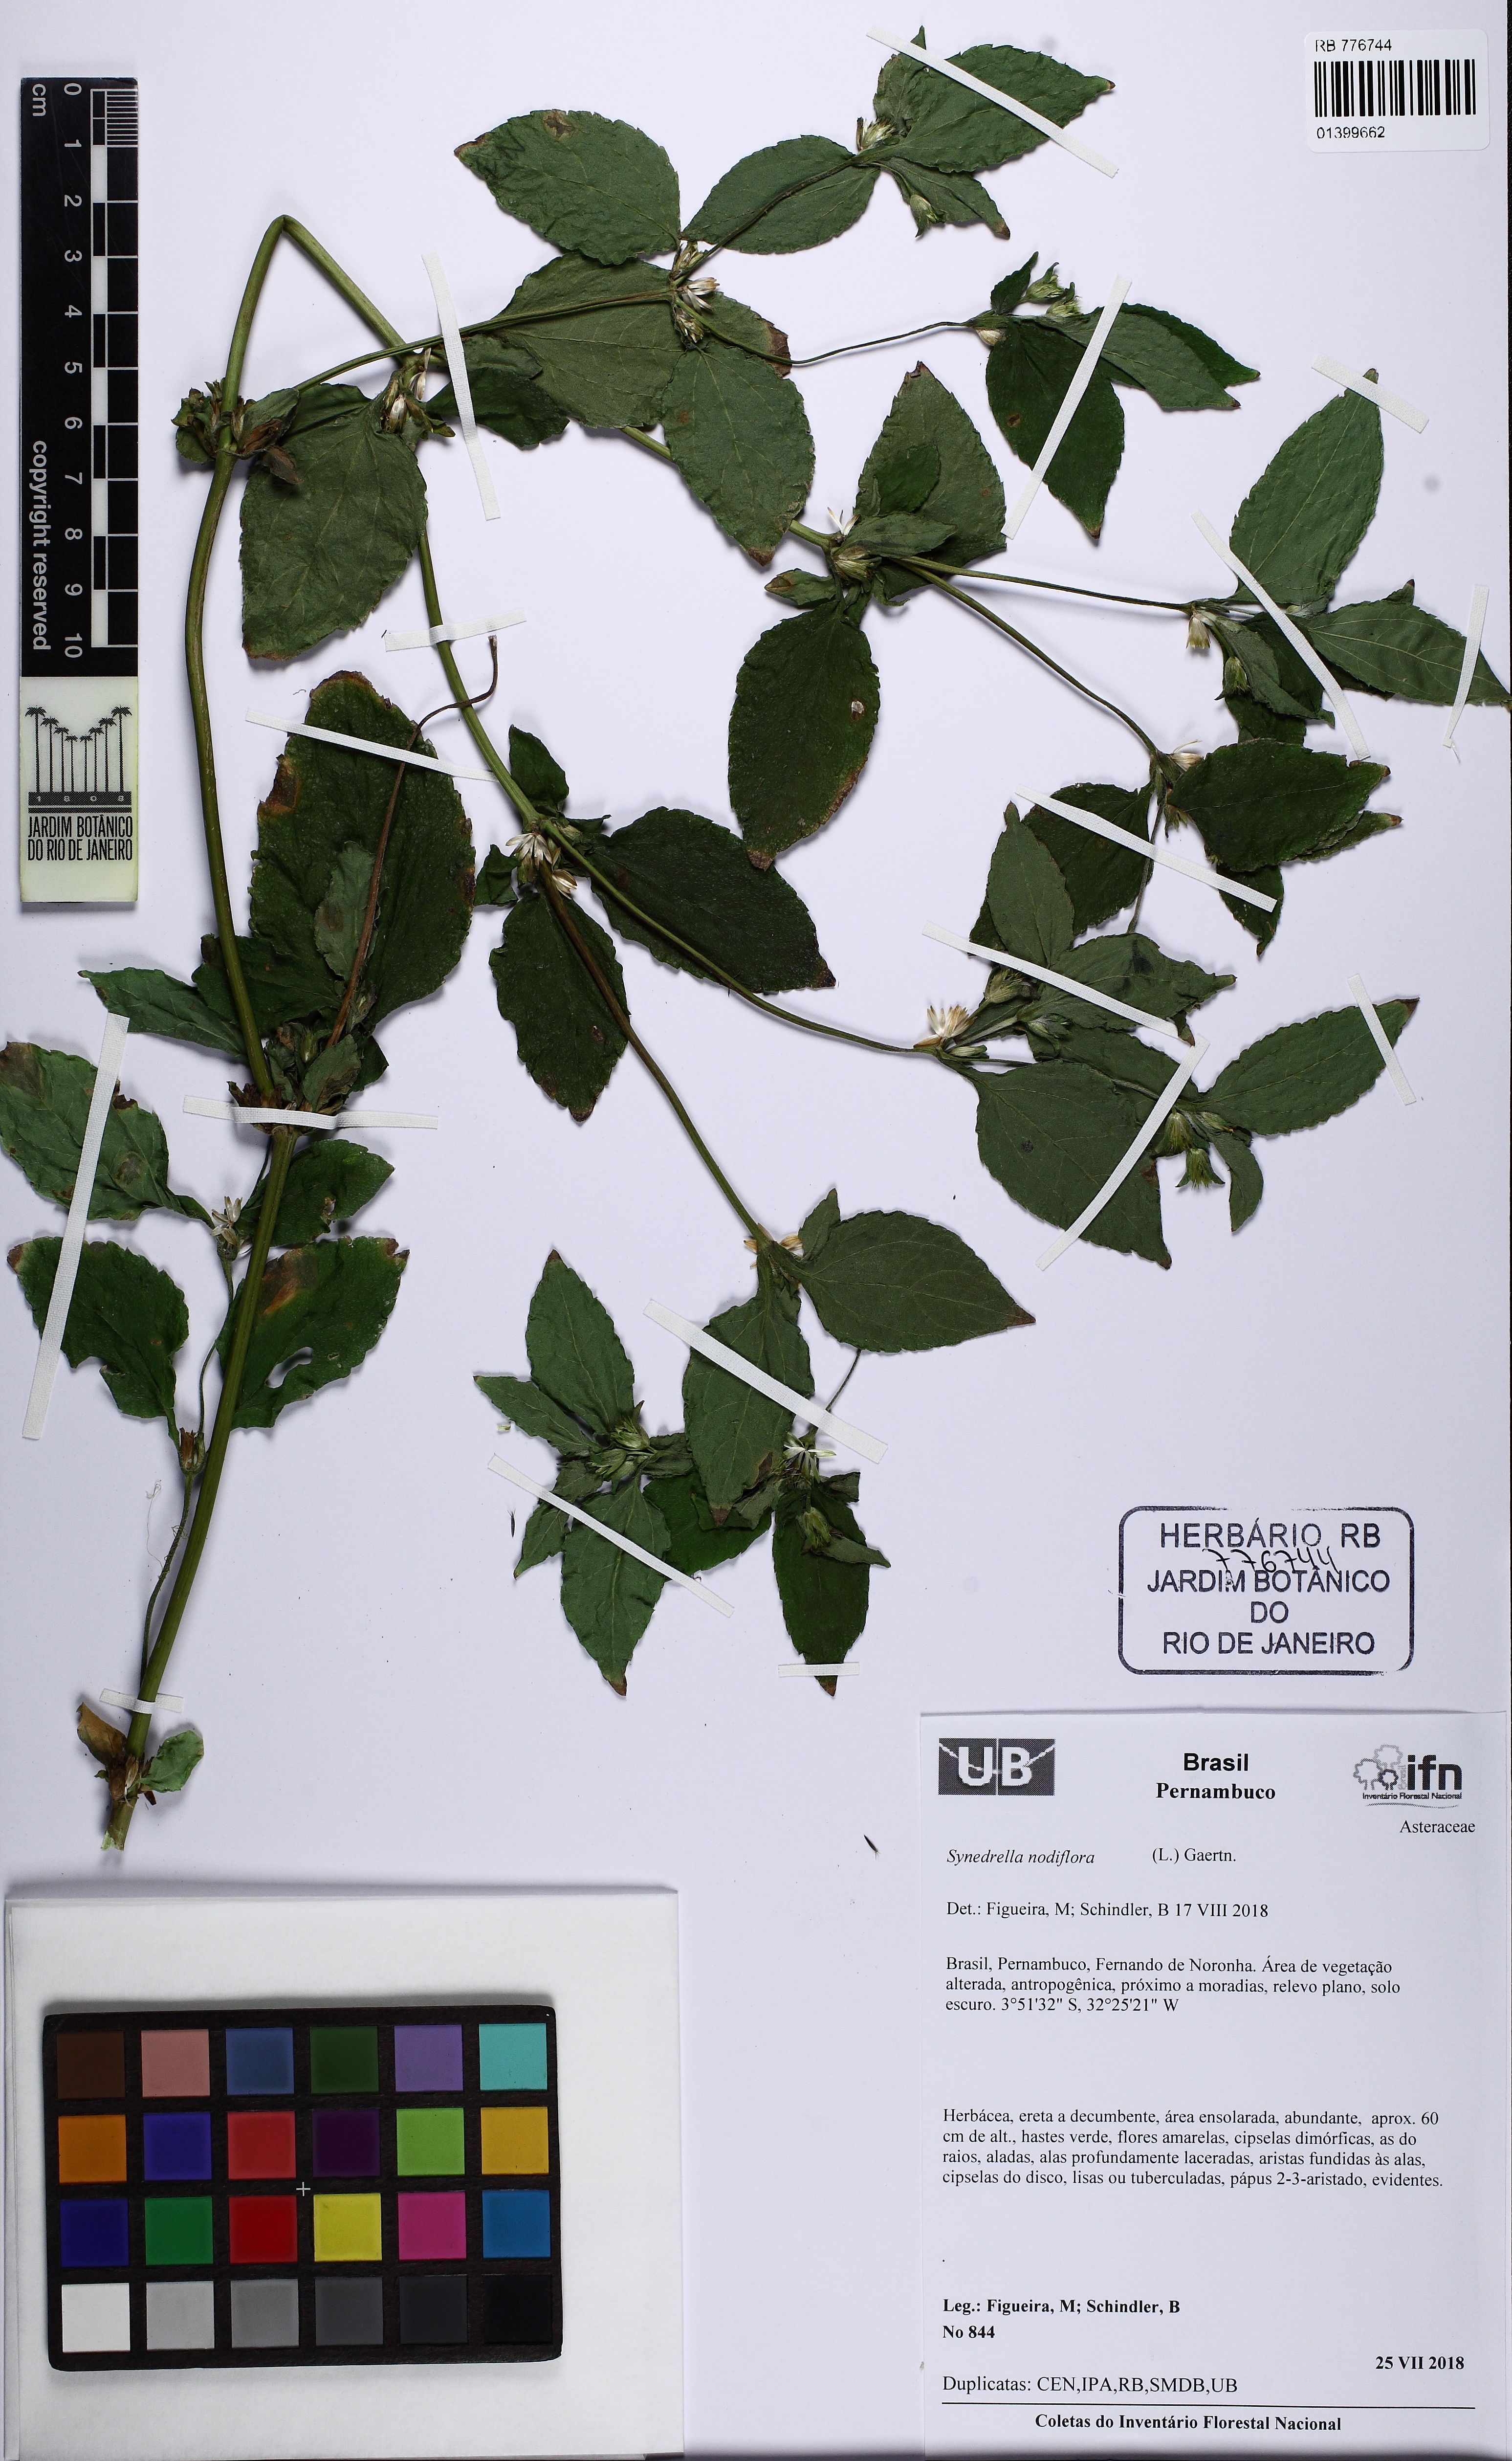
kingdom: Plantae
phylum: Tracheophyta
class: Magnoliopsida
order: Asterales
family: Asteraceae
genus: Synedrella
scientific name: Synedrella nodiflora
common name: Nodeweed
